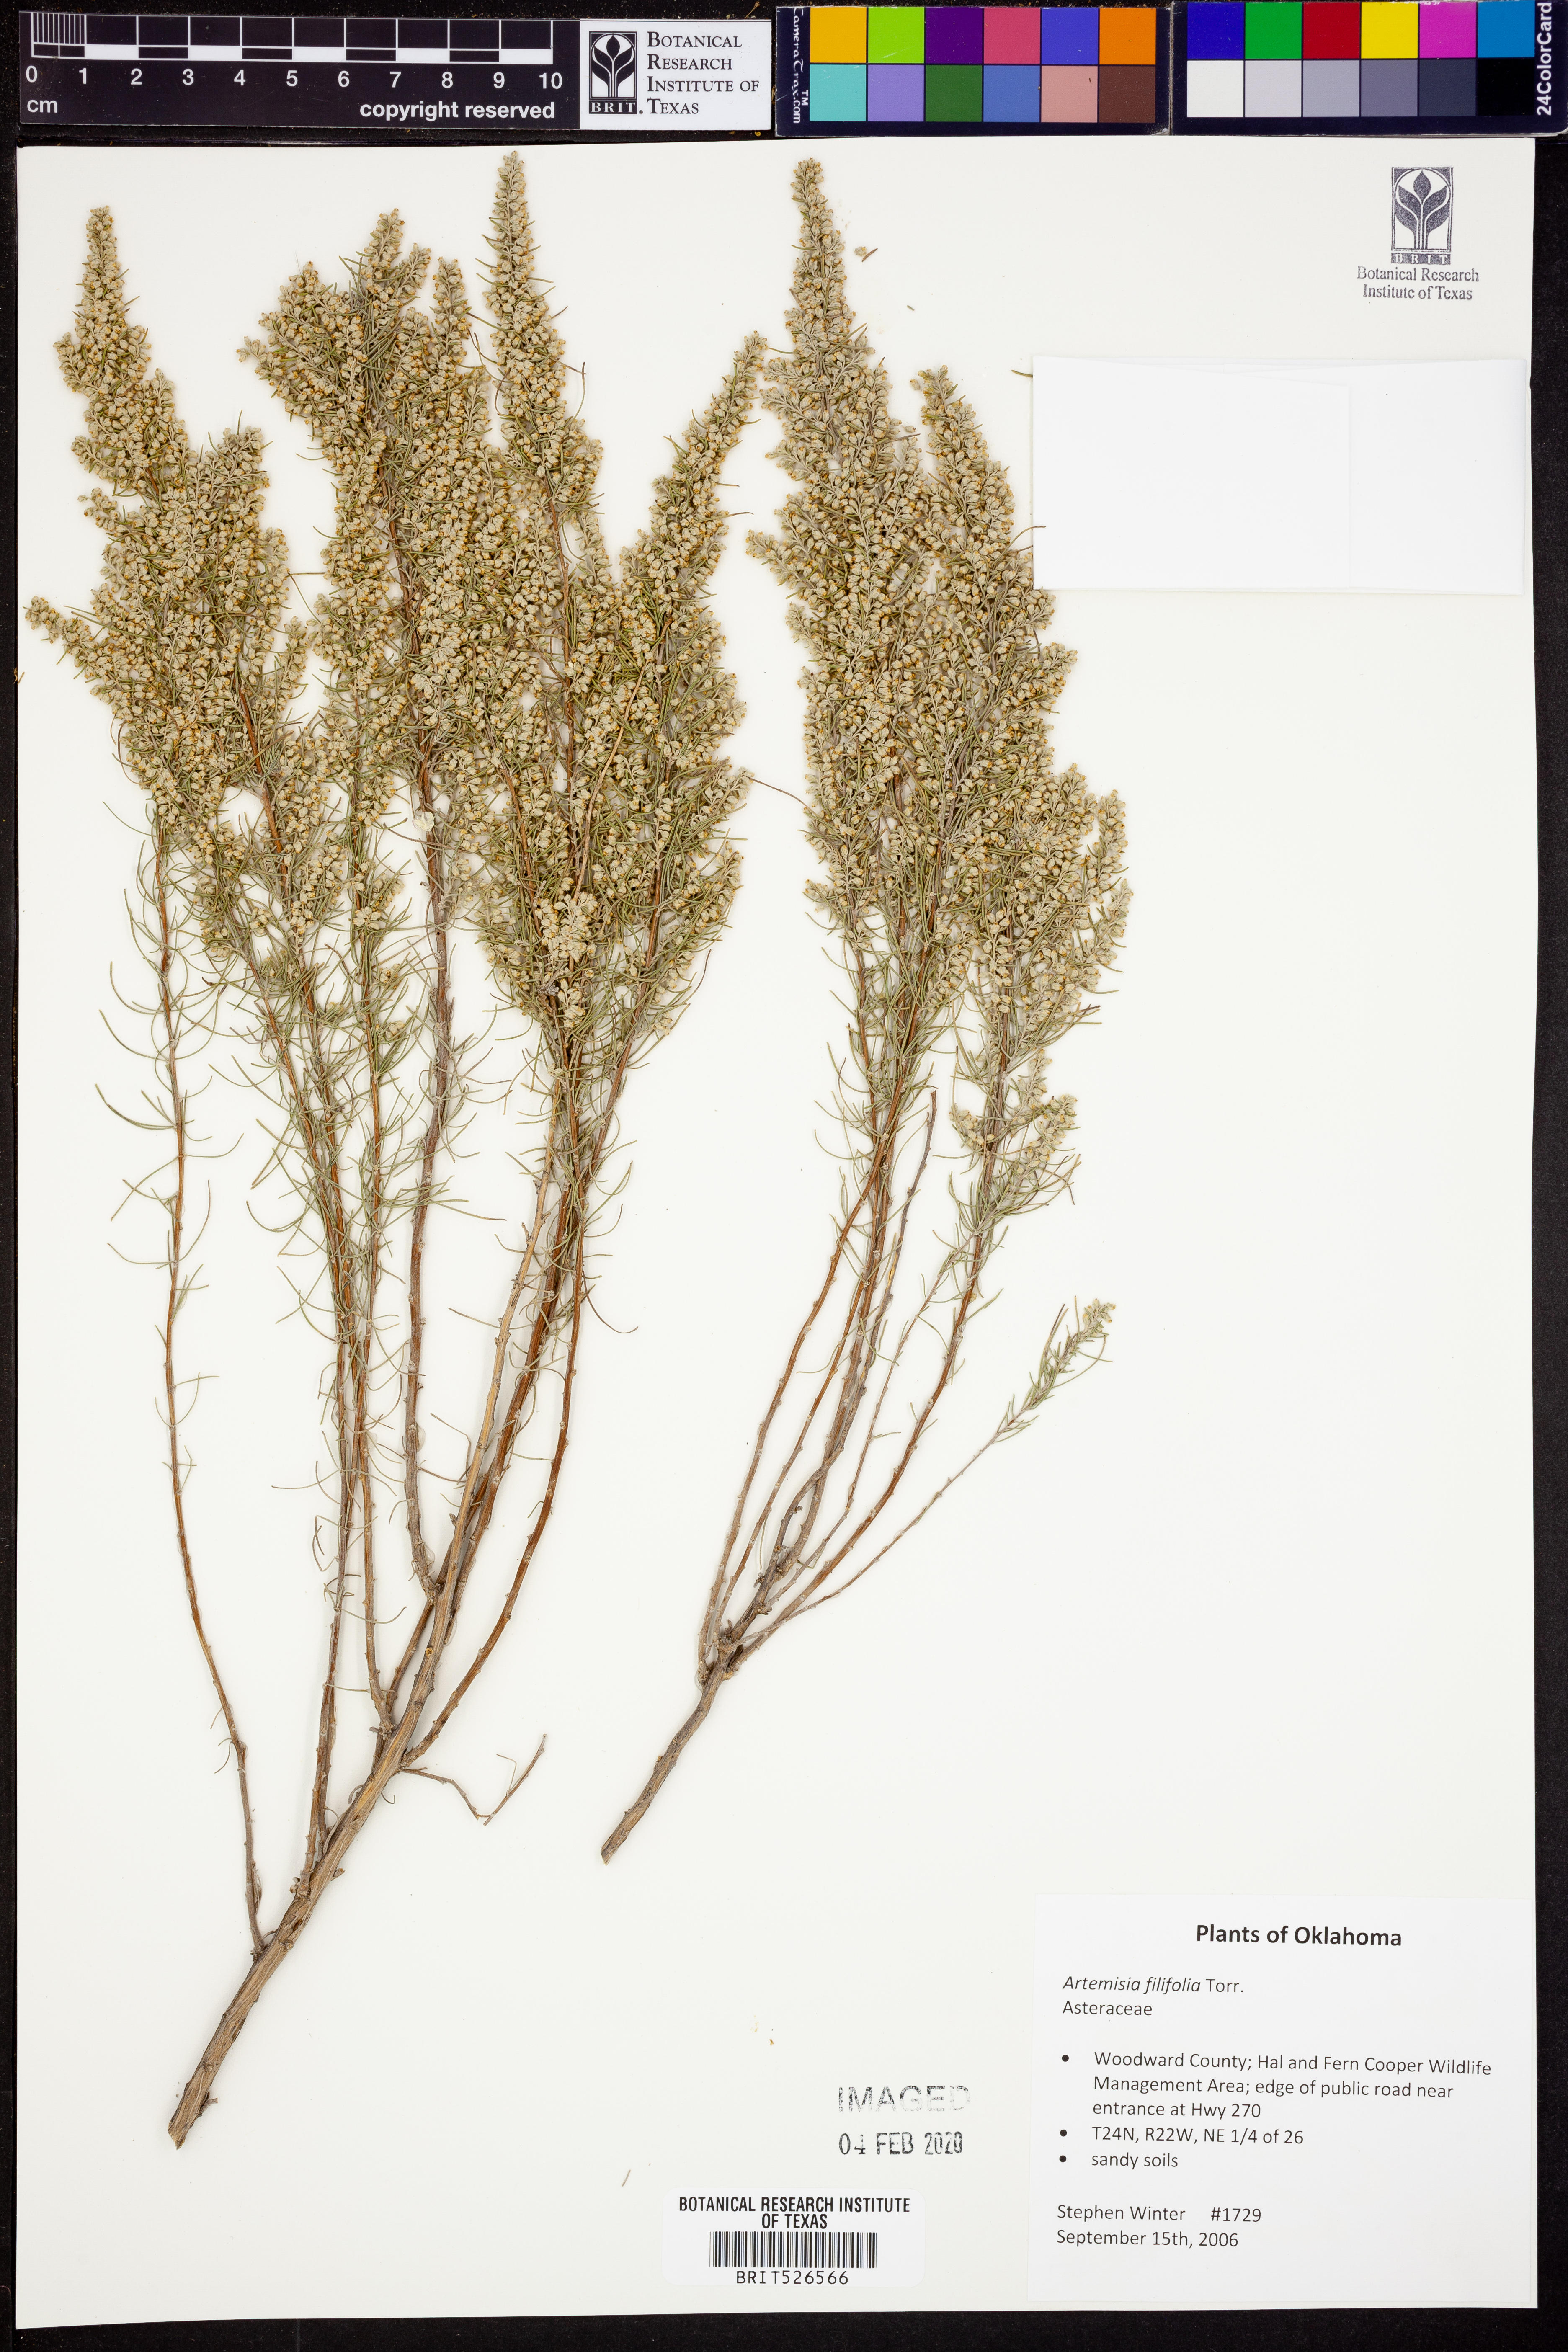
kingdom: Plantae
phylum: Tracheophyta
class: Magnoliopsida
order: Asterales
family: Asteraceae
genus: Artemisia
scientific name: Artemisia filifolia
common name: Sand-sage
